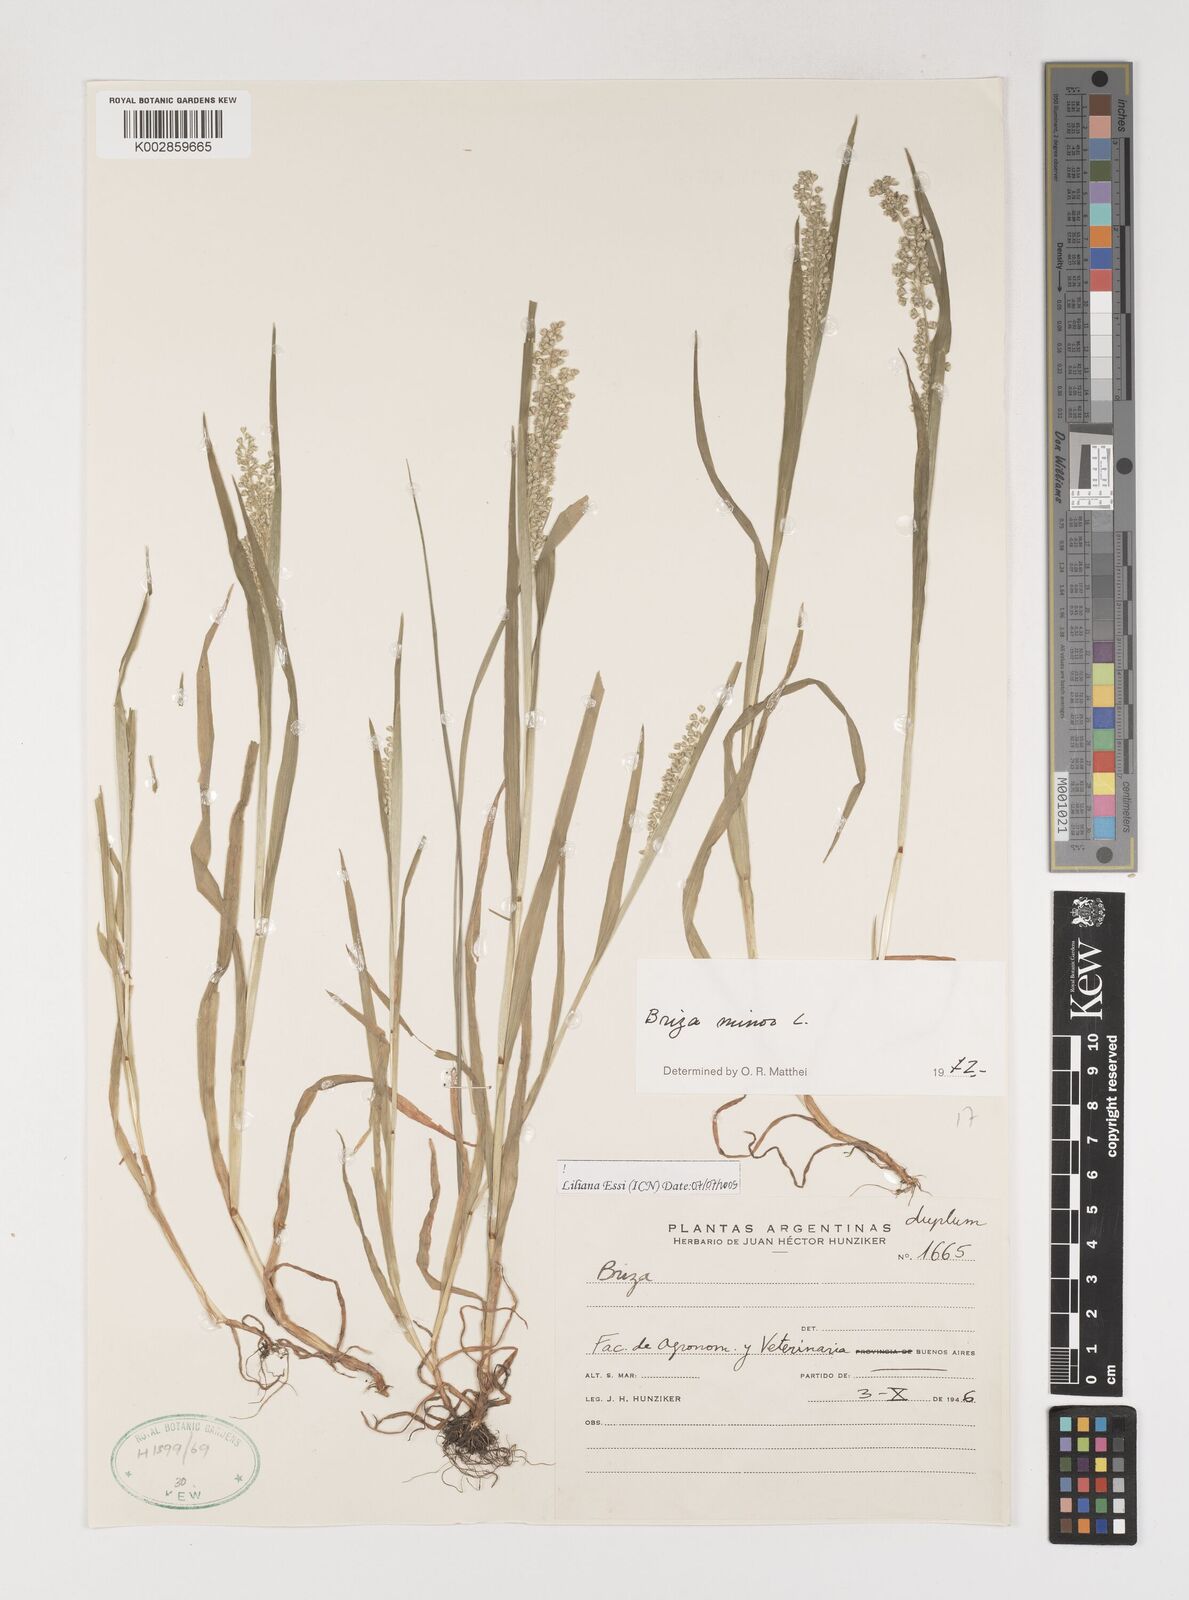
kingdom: Plantae
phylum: Tracheophyta
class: Liliopsida
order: Poales
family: Poaceae
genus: Briza
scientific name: Briza minor
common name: Lesser quaking-grass
